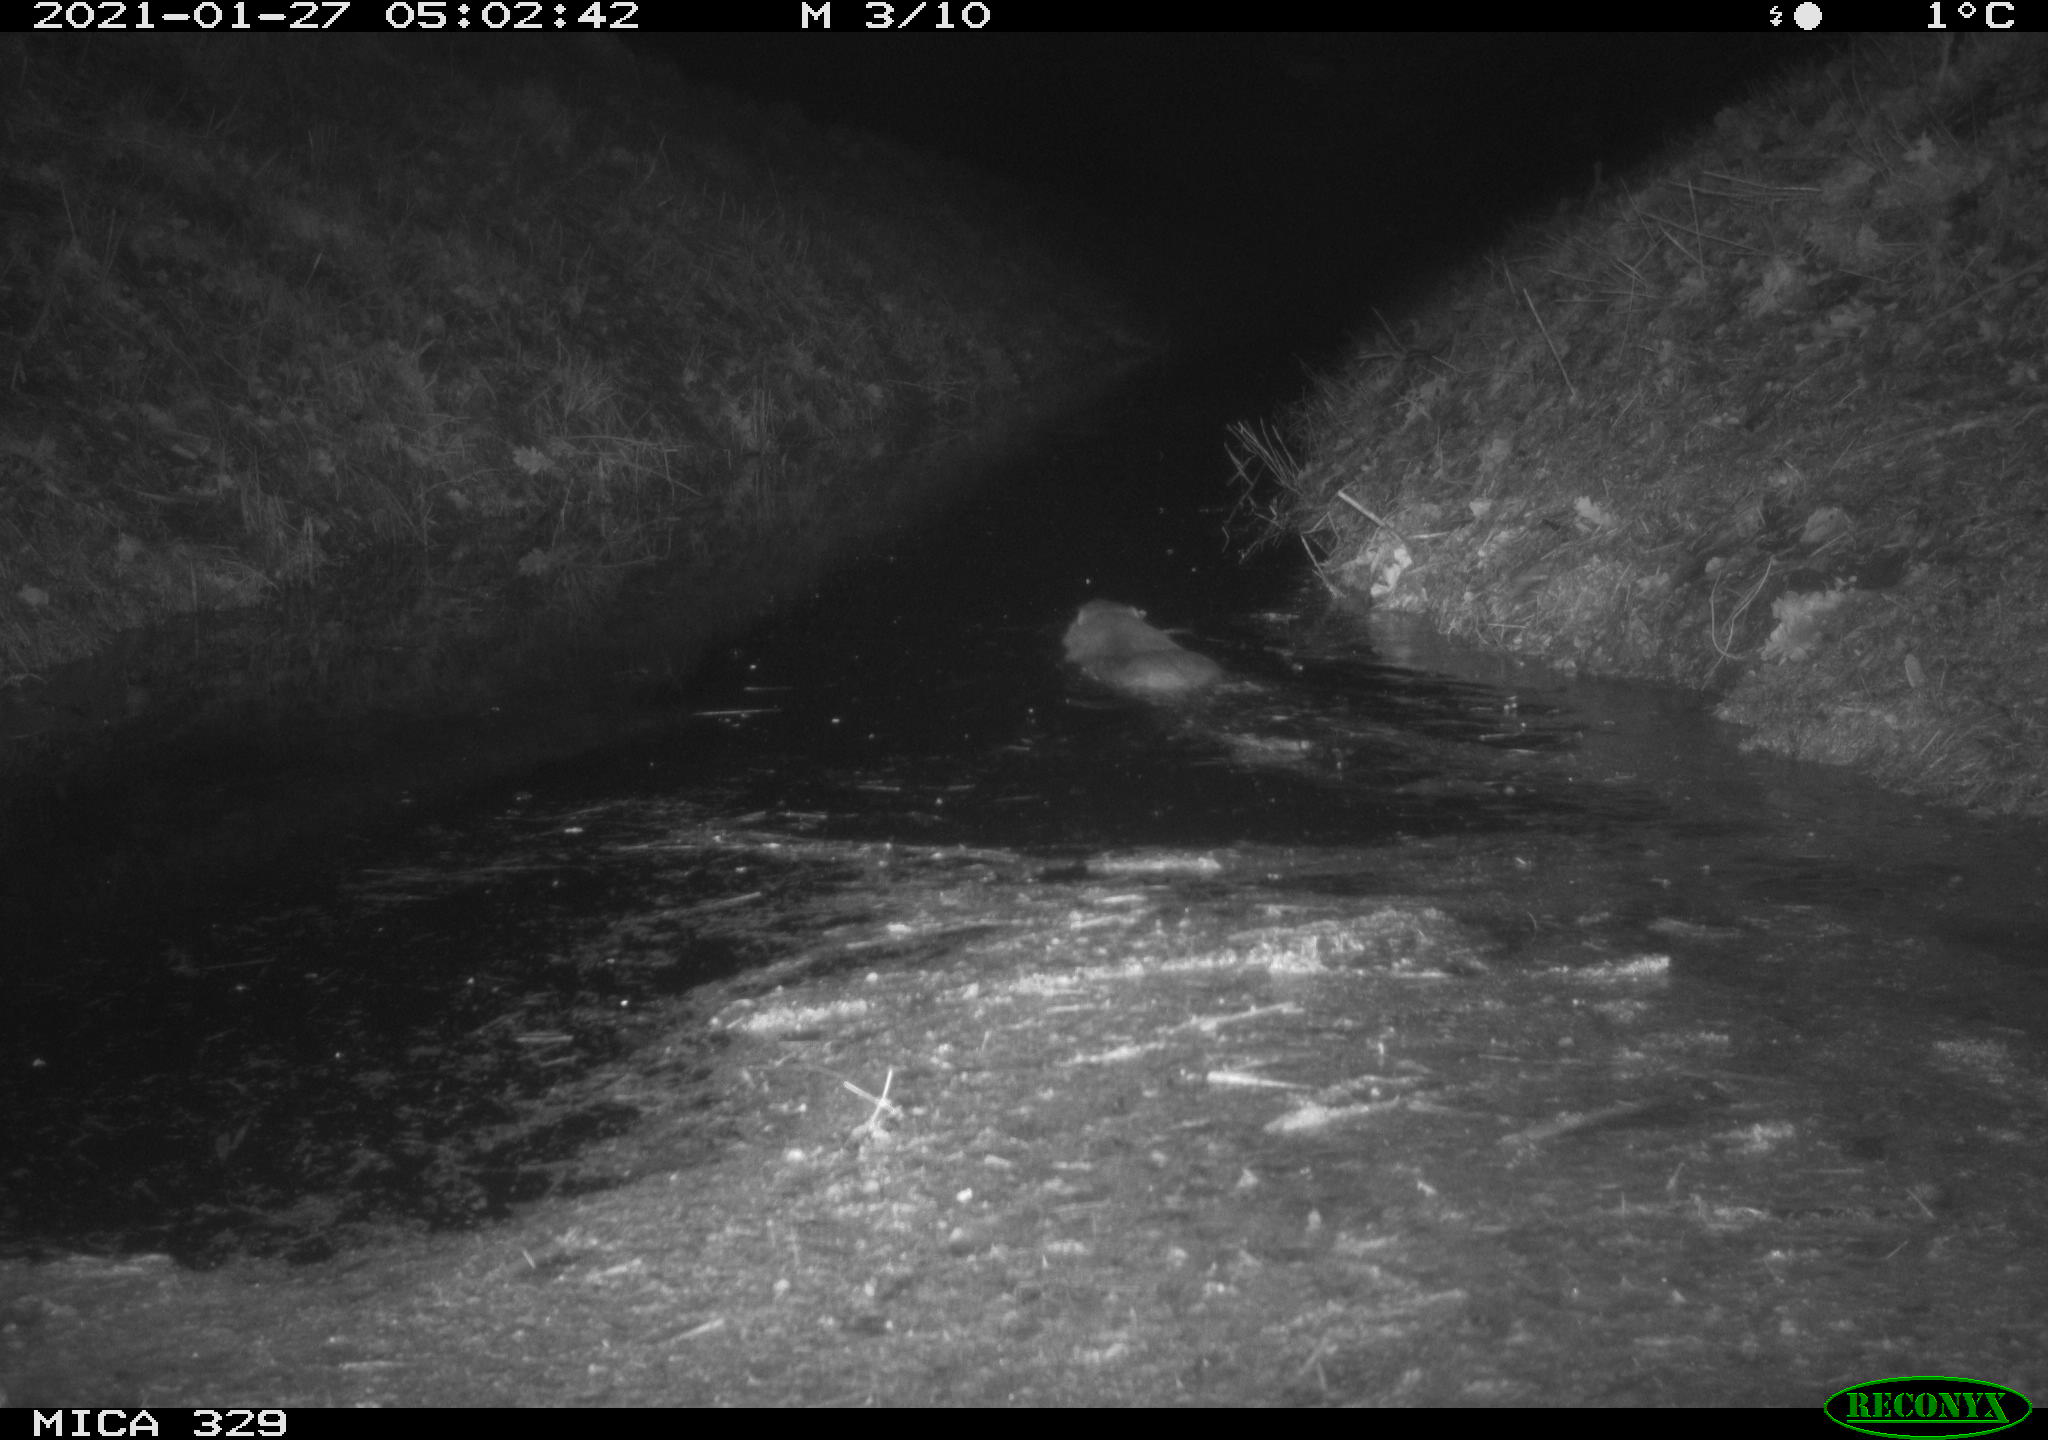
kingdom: Animalia
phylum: Chordata
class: Mammalia
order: Rodentia
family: Myocastoridae
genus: Myocastor
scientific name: Myocastor coypus
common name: Coypu
